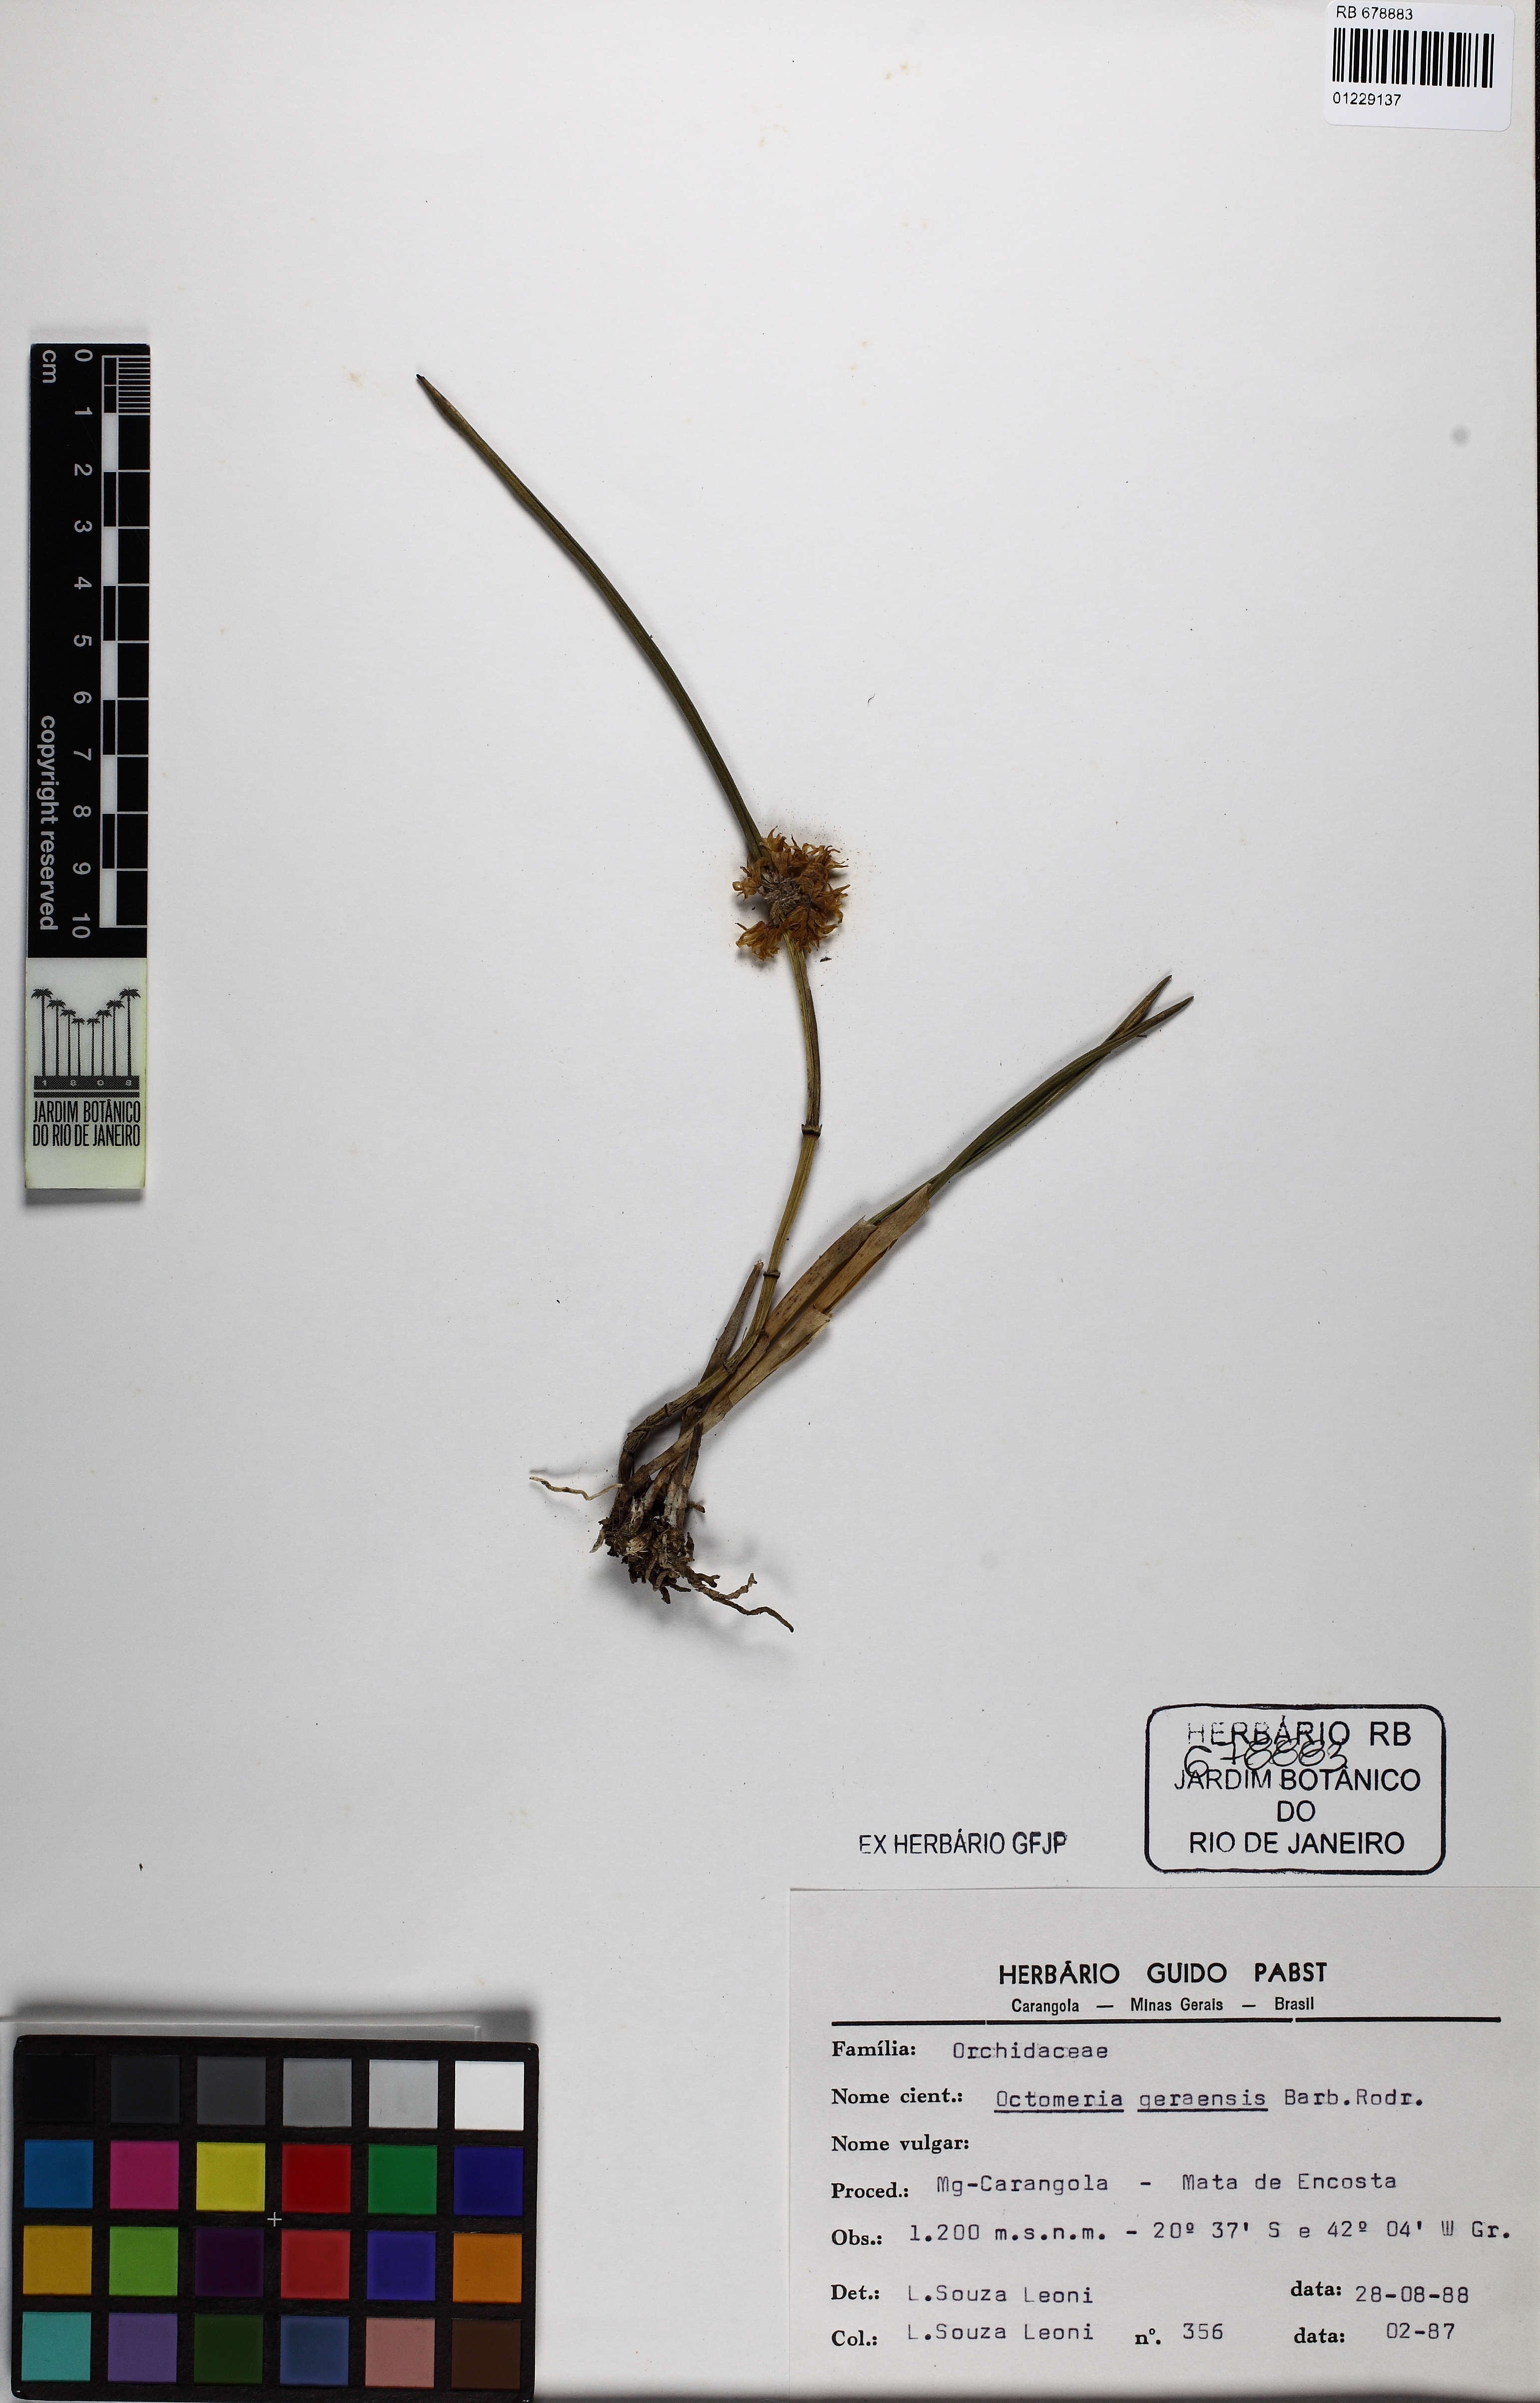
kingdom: Plantae
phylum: Tracheophyta
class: Liliopsida
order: Asparagales
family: Orchidaceae
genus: Octomeria
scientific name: Octomeria geraensis
